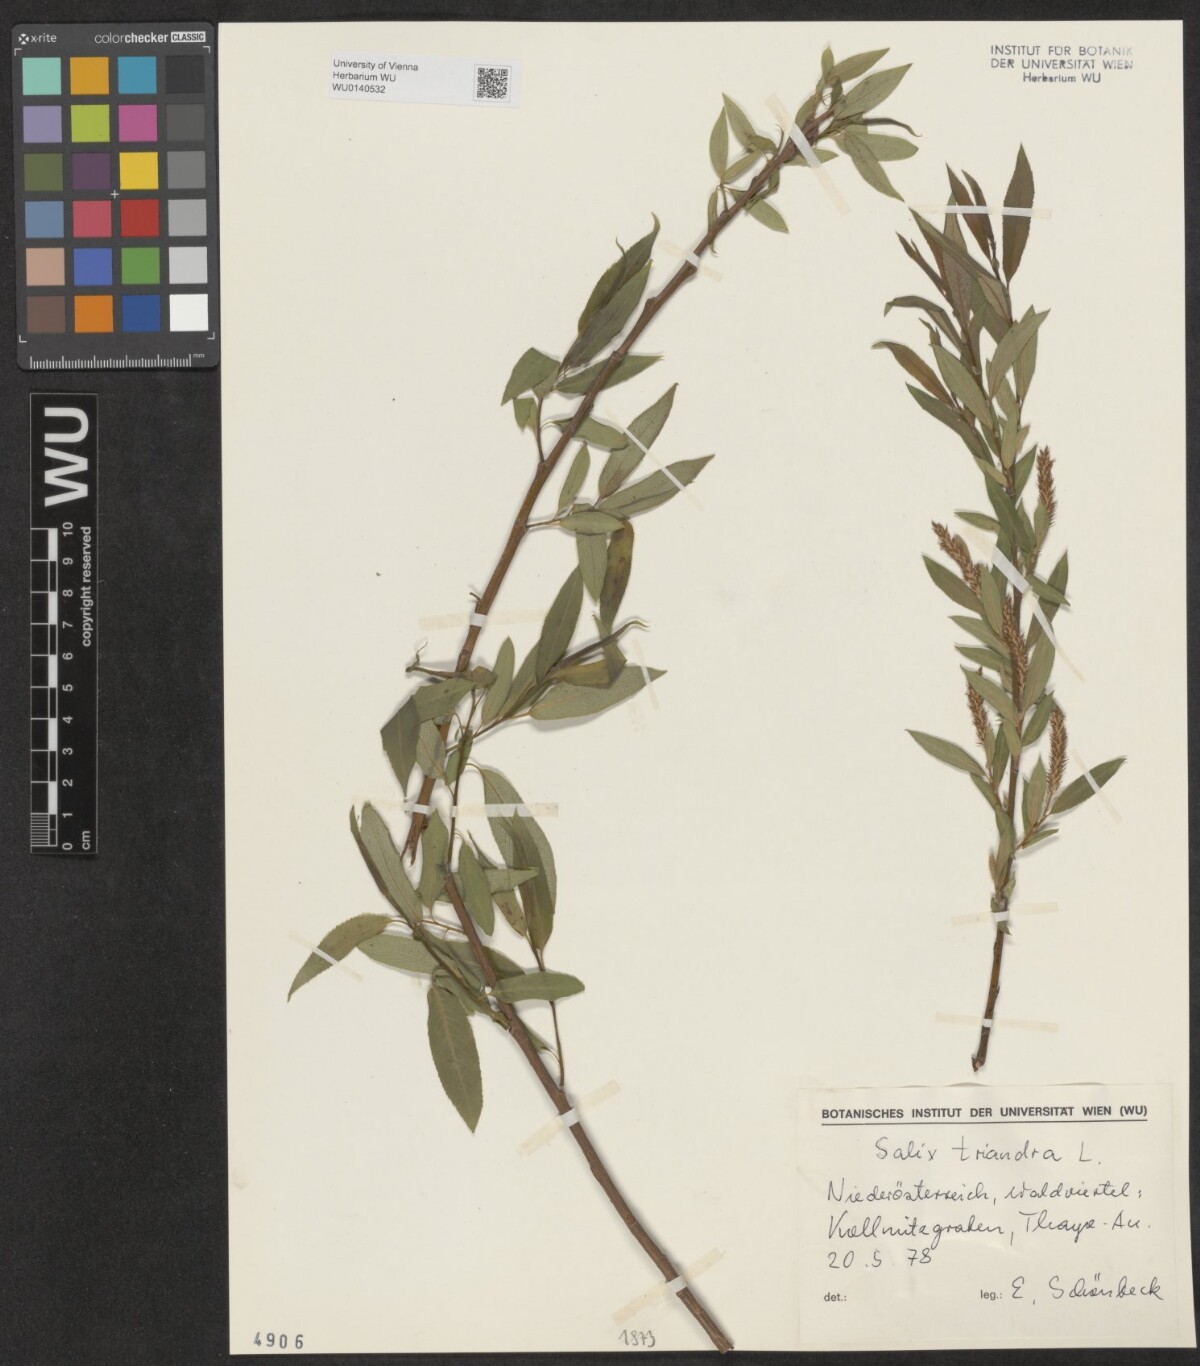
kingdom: Plantae
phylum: Tracheophyta
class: Magnoliopsida
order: Malpighiales
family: Salicaceae
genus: Salix
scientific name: Salix triandra
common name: Almond willow
